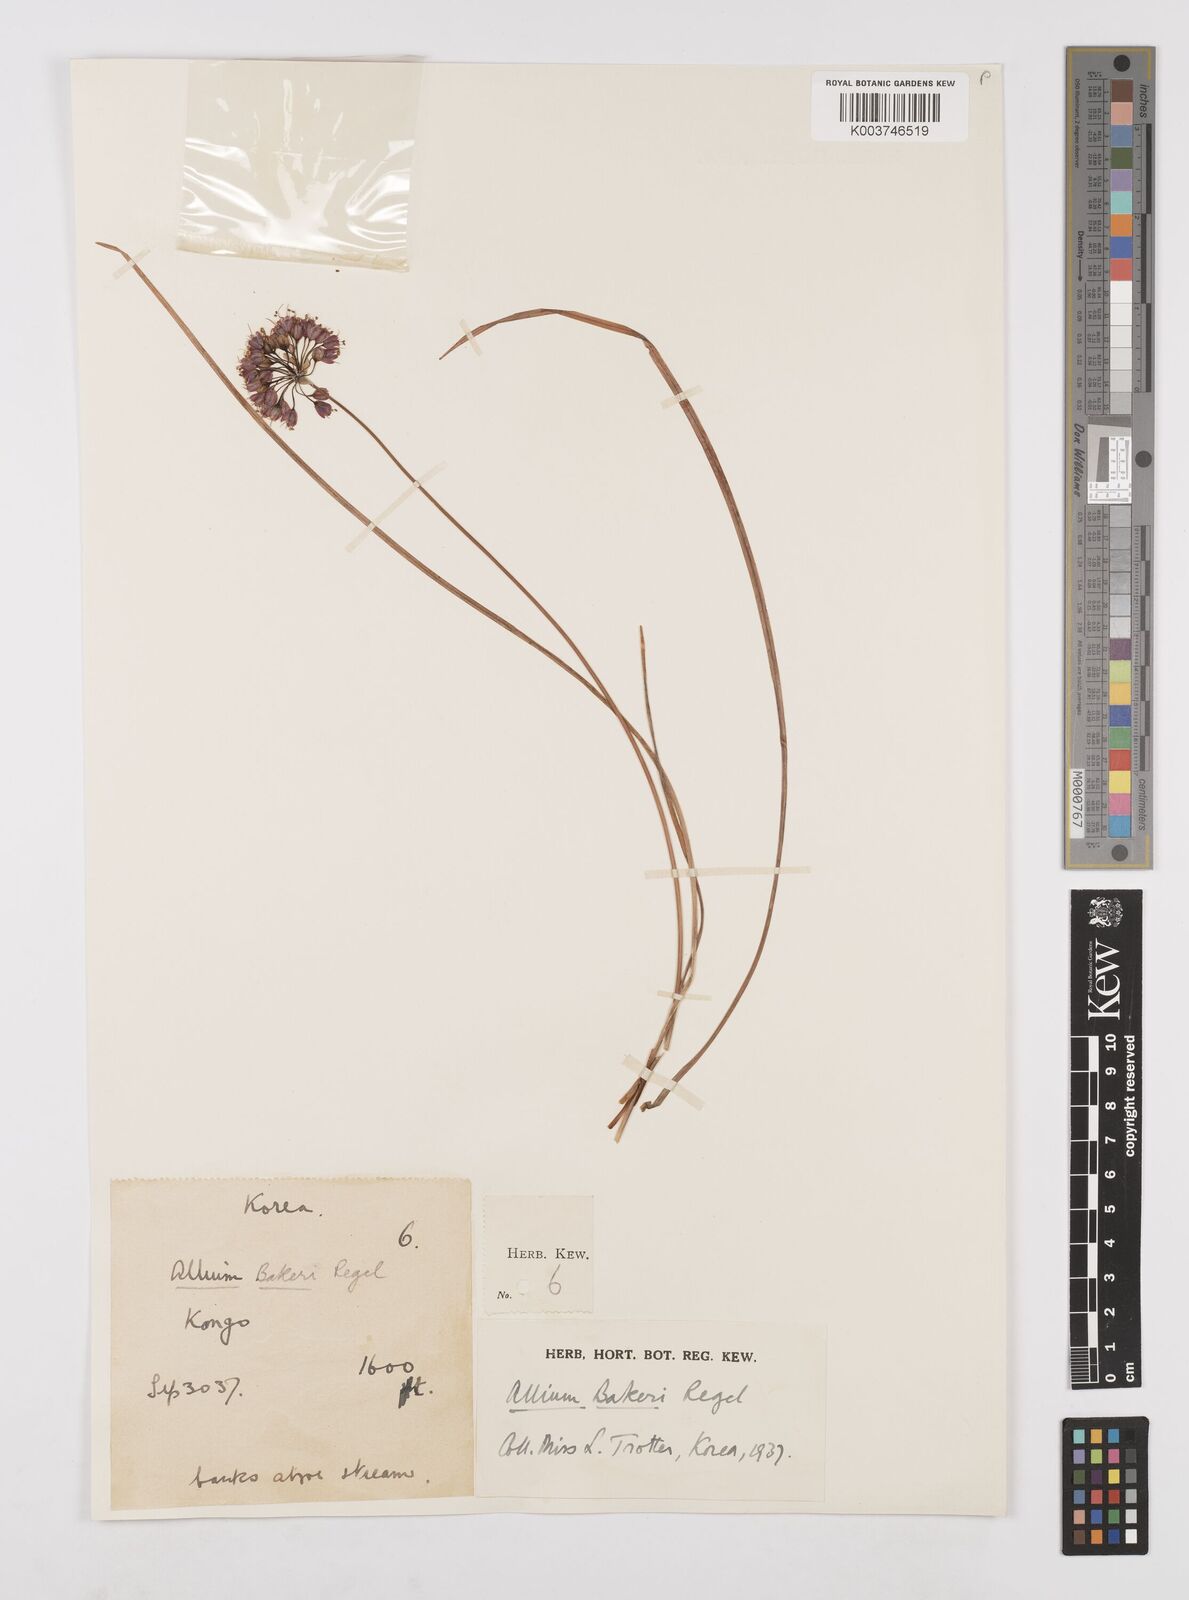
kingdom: Plantae
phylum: Tracheophyta
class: Liliopsida
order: Asparagales
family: Amaryllidaceae
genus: Allium
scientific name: Allium chinense
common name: Japanese scallion
